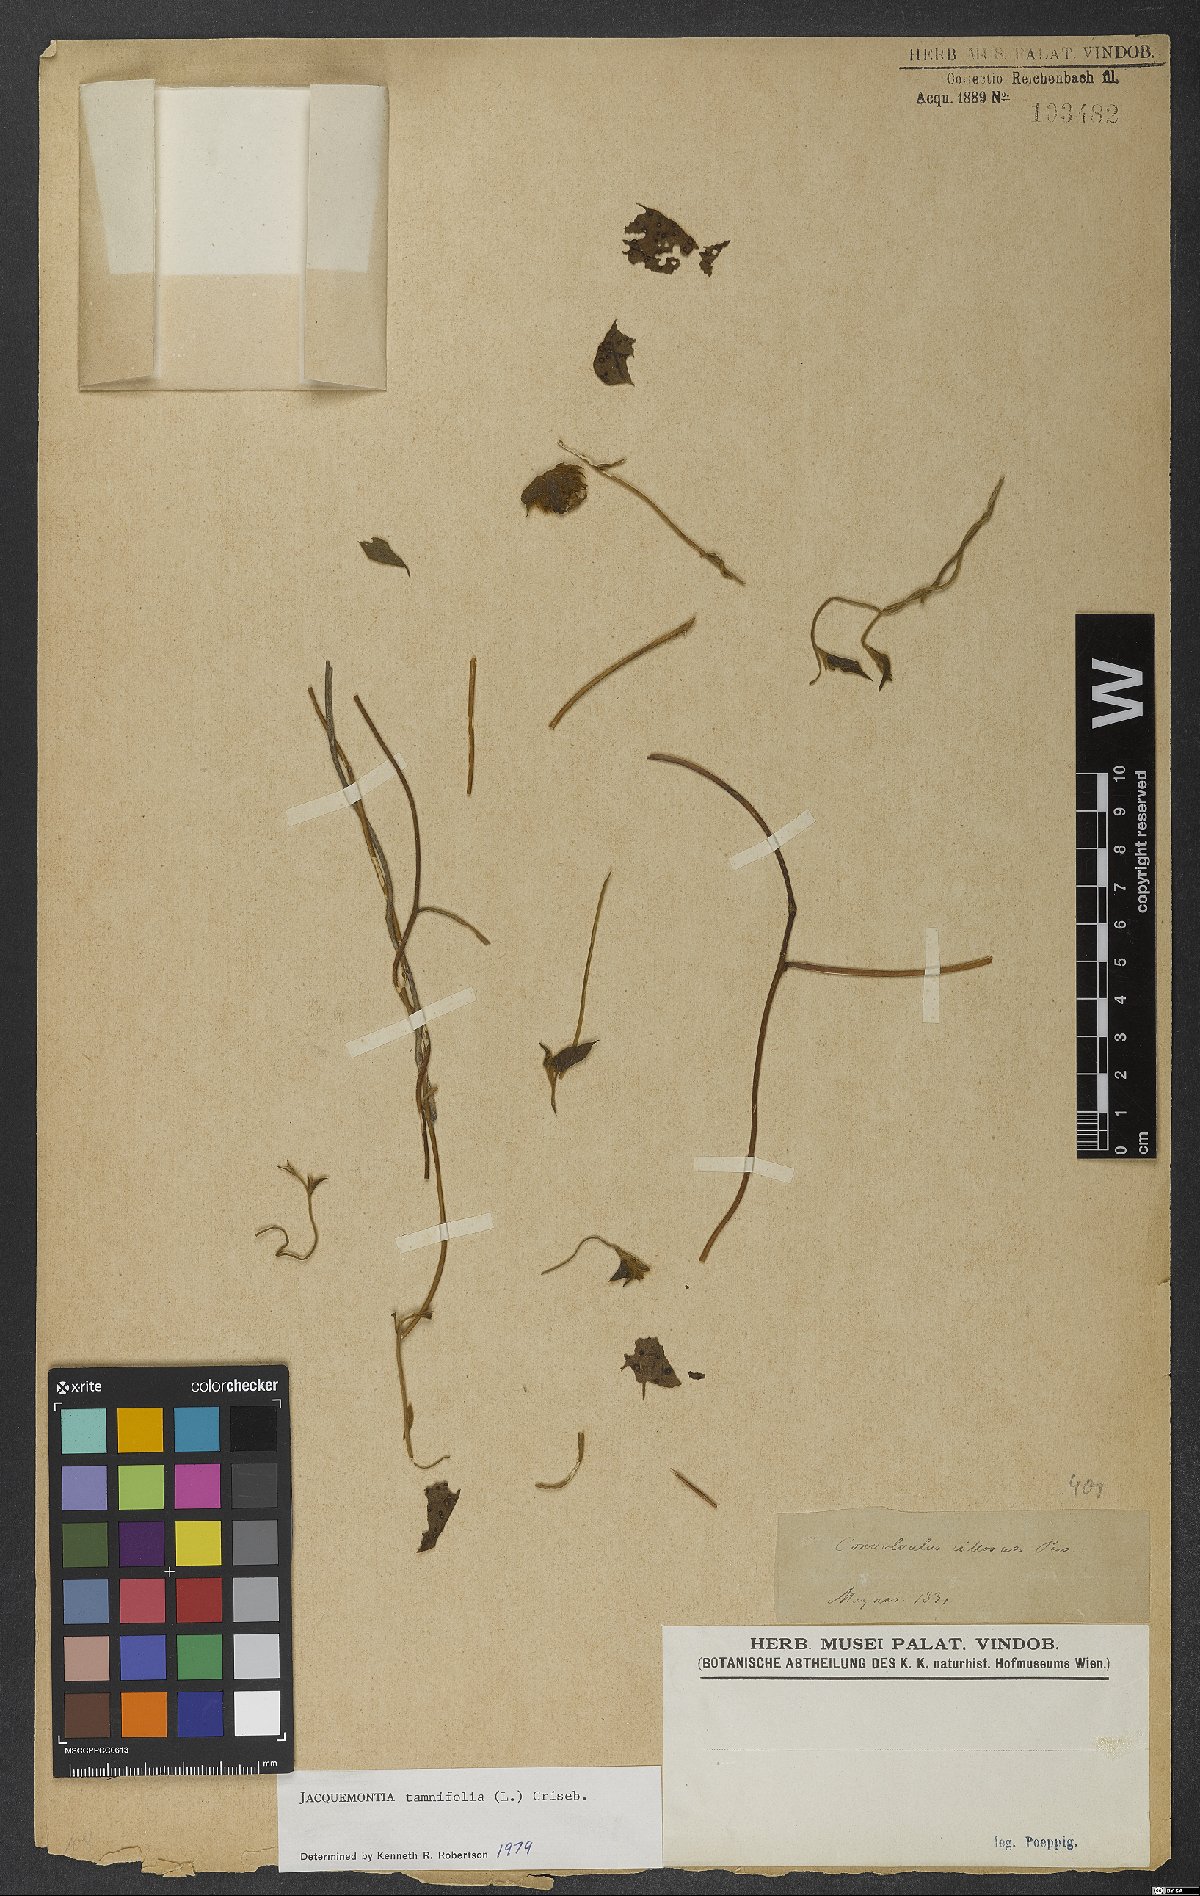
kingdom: Plantae
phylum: Tracheophyta
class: Magnoliopsida
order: Solanales
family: Convolvulaceae
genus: Jacquemontia
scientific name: Jacquemontia tamnifolia
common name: Hairy clustervine
